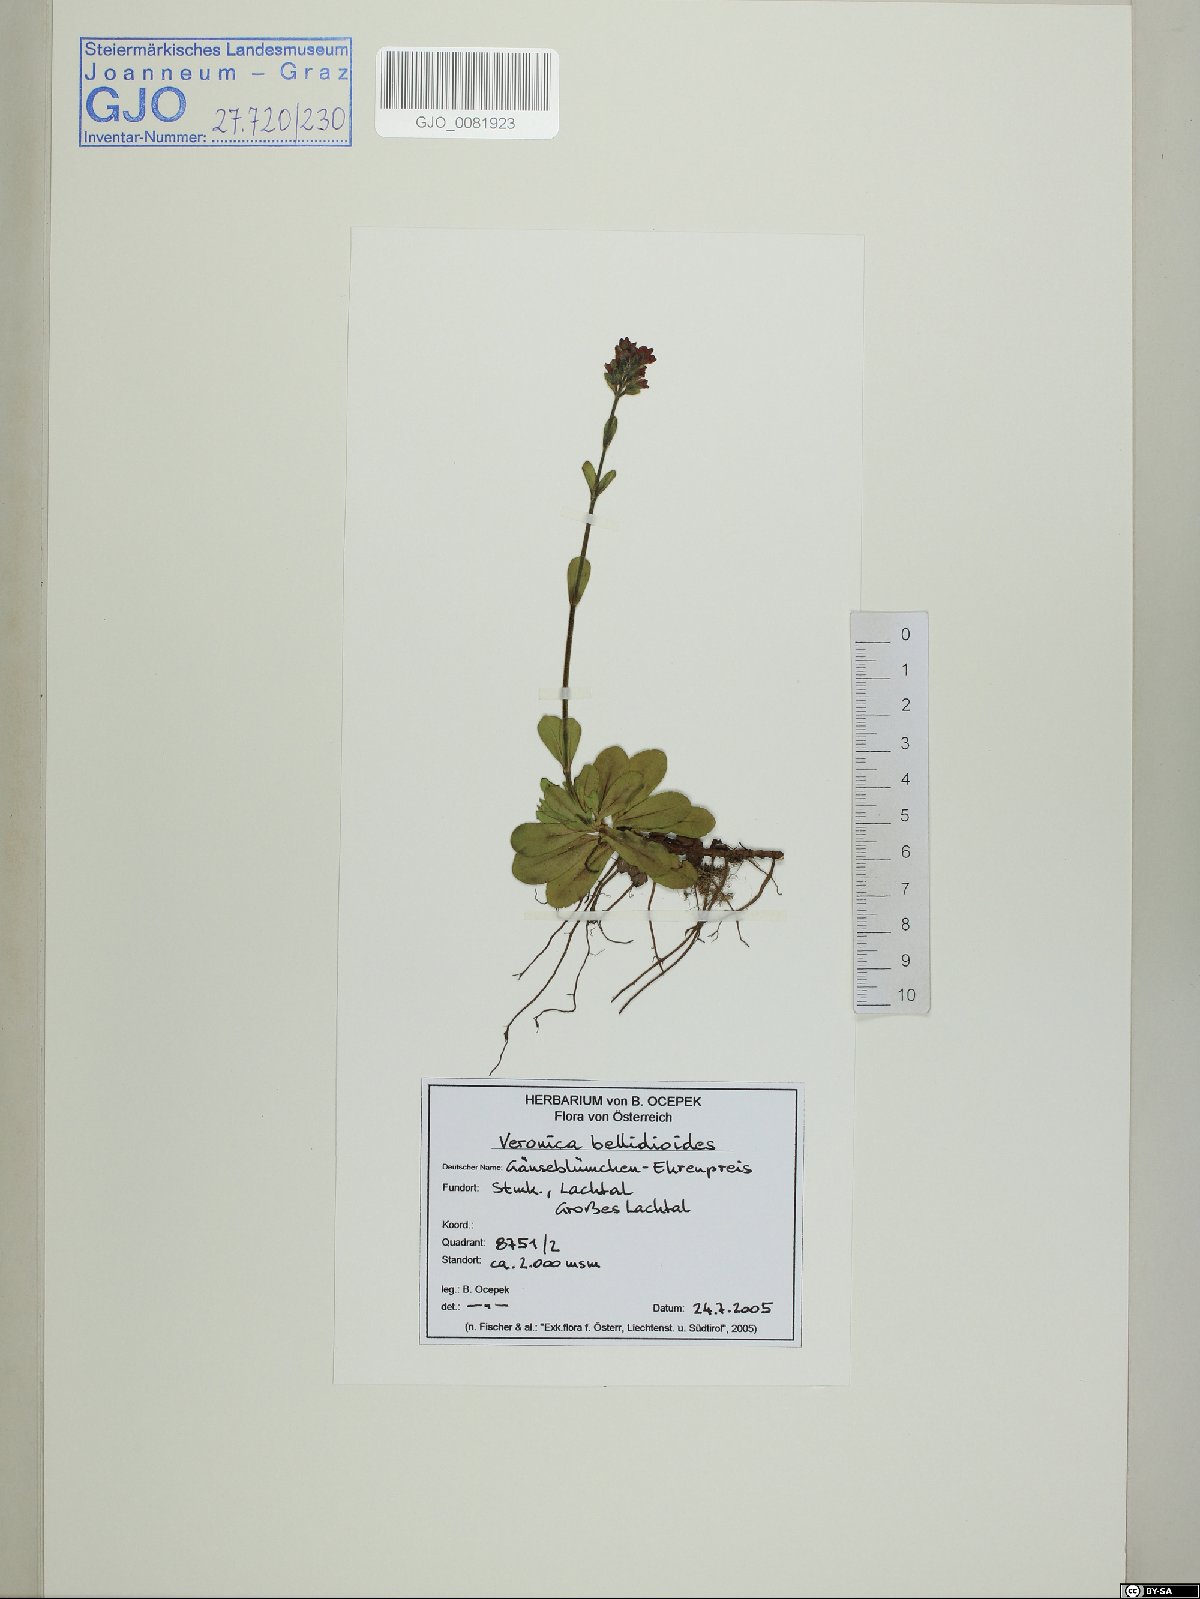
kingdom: Plantae
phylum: Tracheophyta
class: Magnoliopsida
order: Lamiales
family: Plantaginaceae
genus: Veronica
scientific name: Veronica bellidioides
